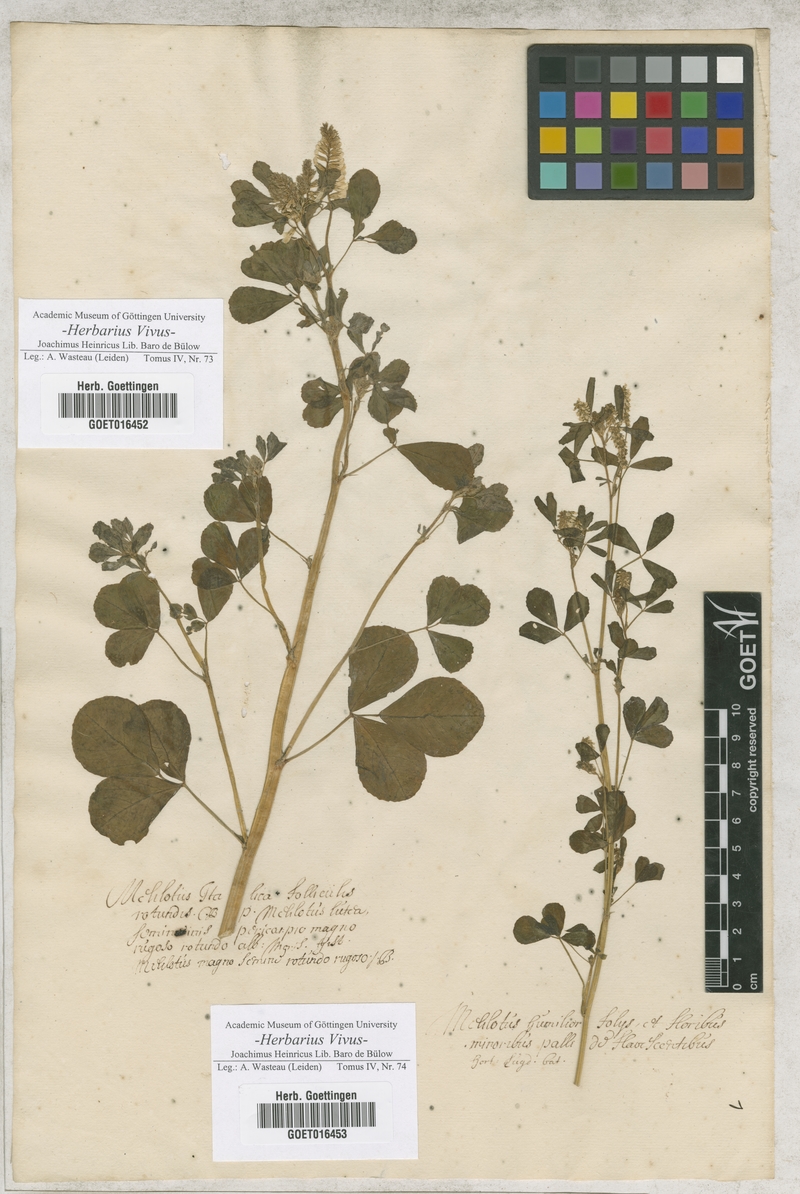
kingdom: Plantae
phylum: Tracheophyta
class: Magnoliopsida
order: Fabales
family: Fabaceae
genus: Melilotus
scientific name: Melilotus italicus
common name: Italian melilot
